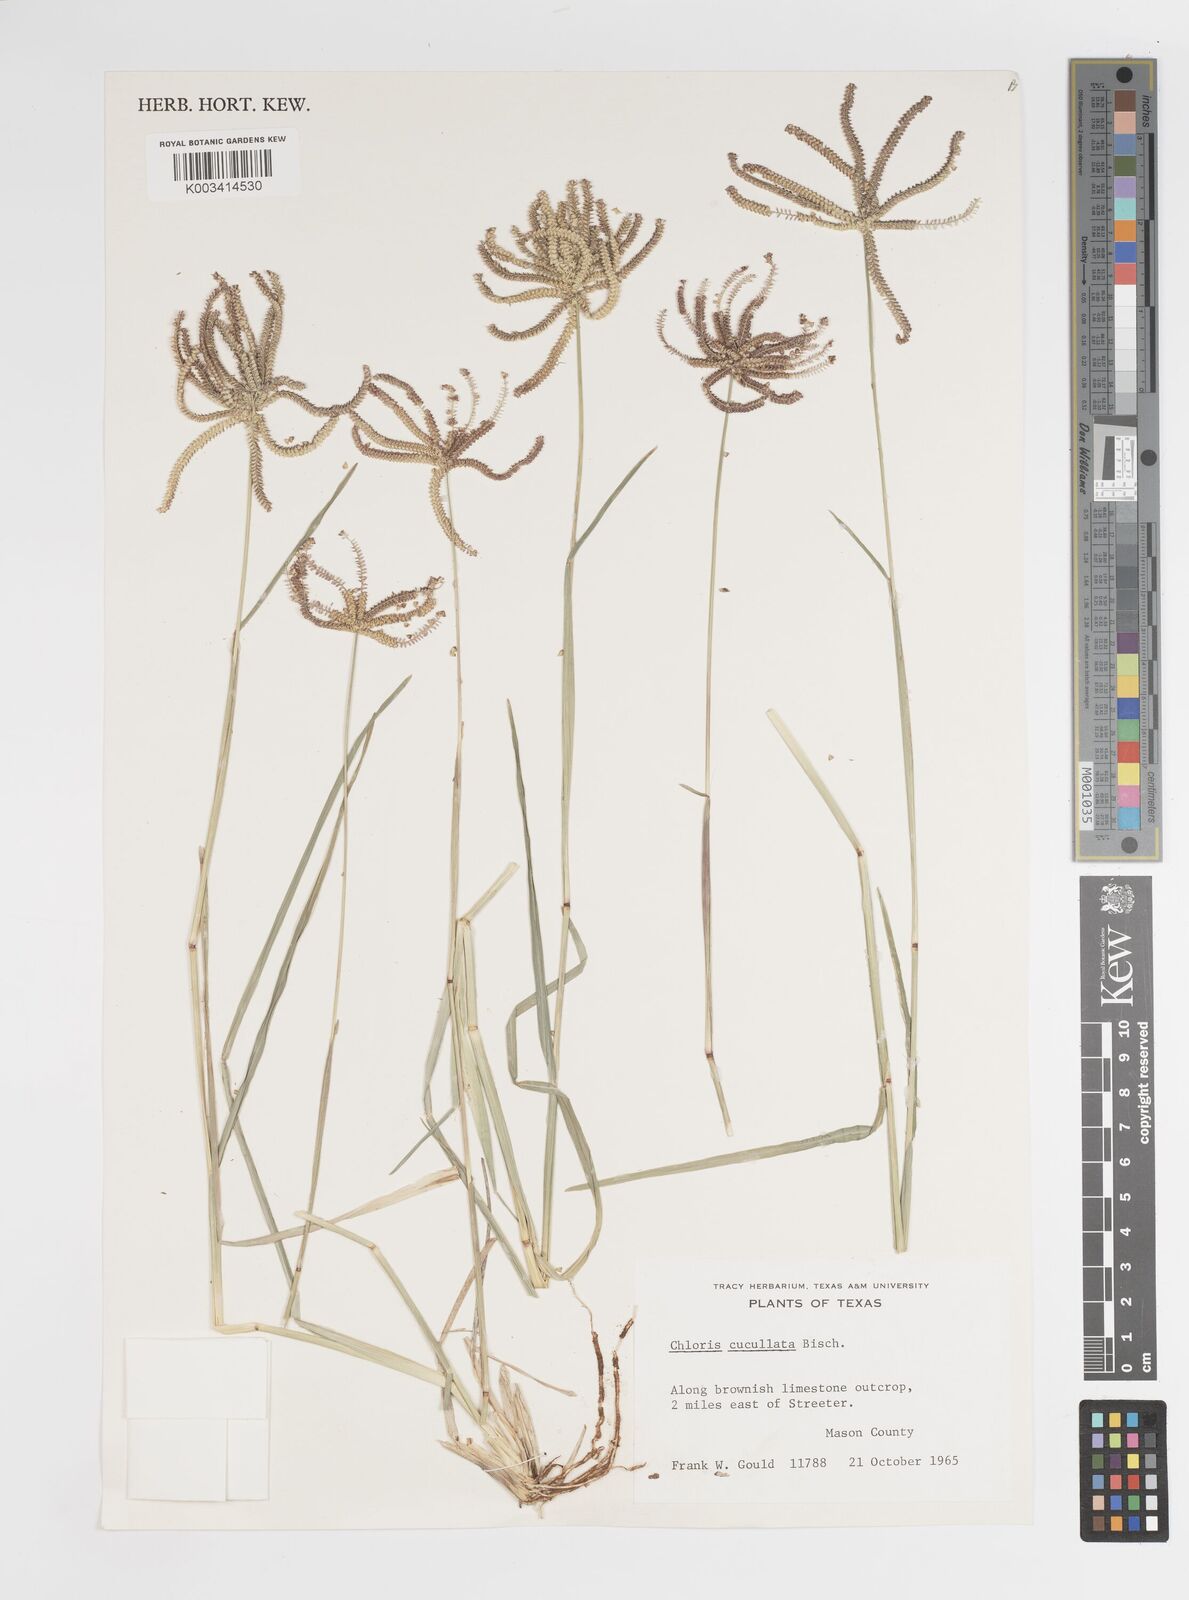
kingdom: Plantae
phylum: Tracheophyta
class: Liliopsida
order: Poales
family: Poaceae
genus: Chloris
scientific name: Chloris cucullata
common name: Hooded windmill grass
